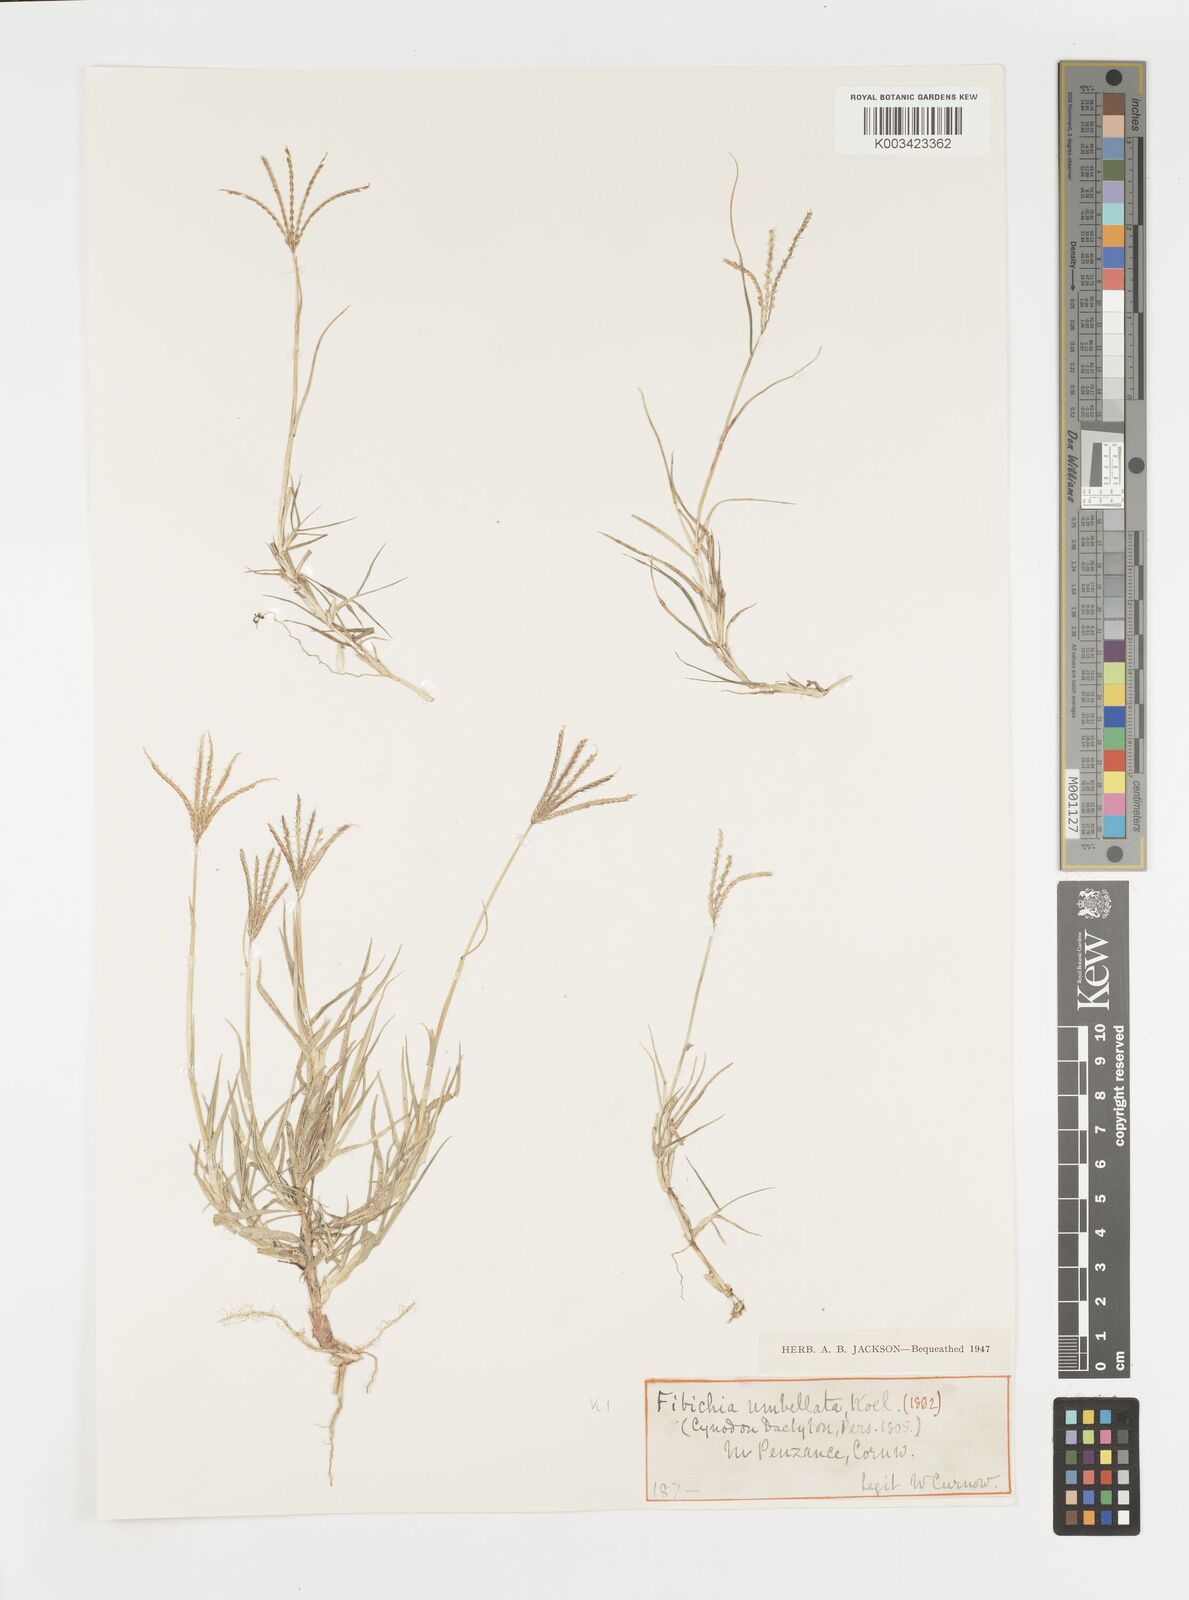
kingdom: Plantae
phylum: Tracheophyta
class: Liliopsida
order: Poales
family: Poaceae
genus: Cynodon
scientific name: Cynodon dactylon
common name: Bermuda grass
